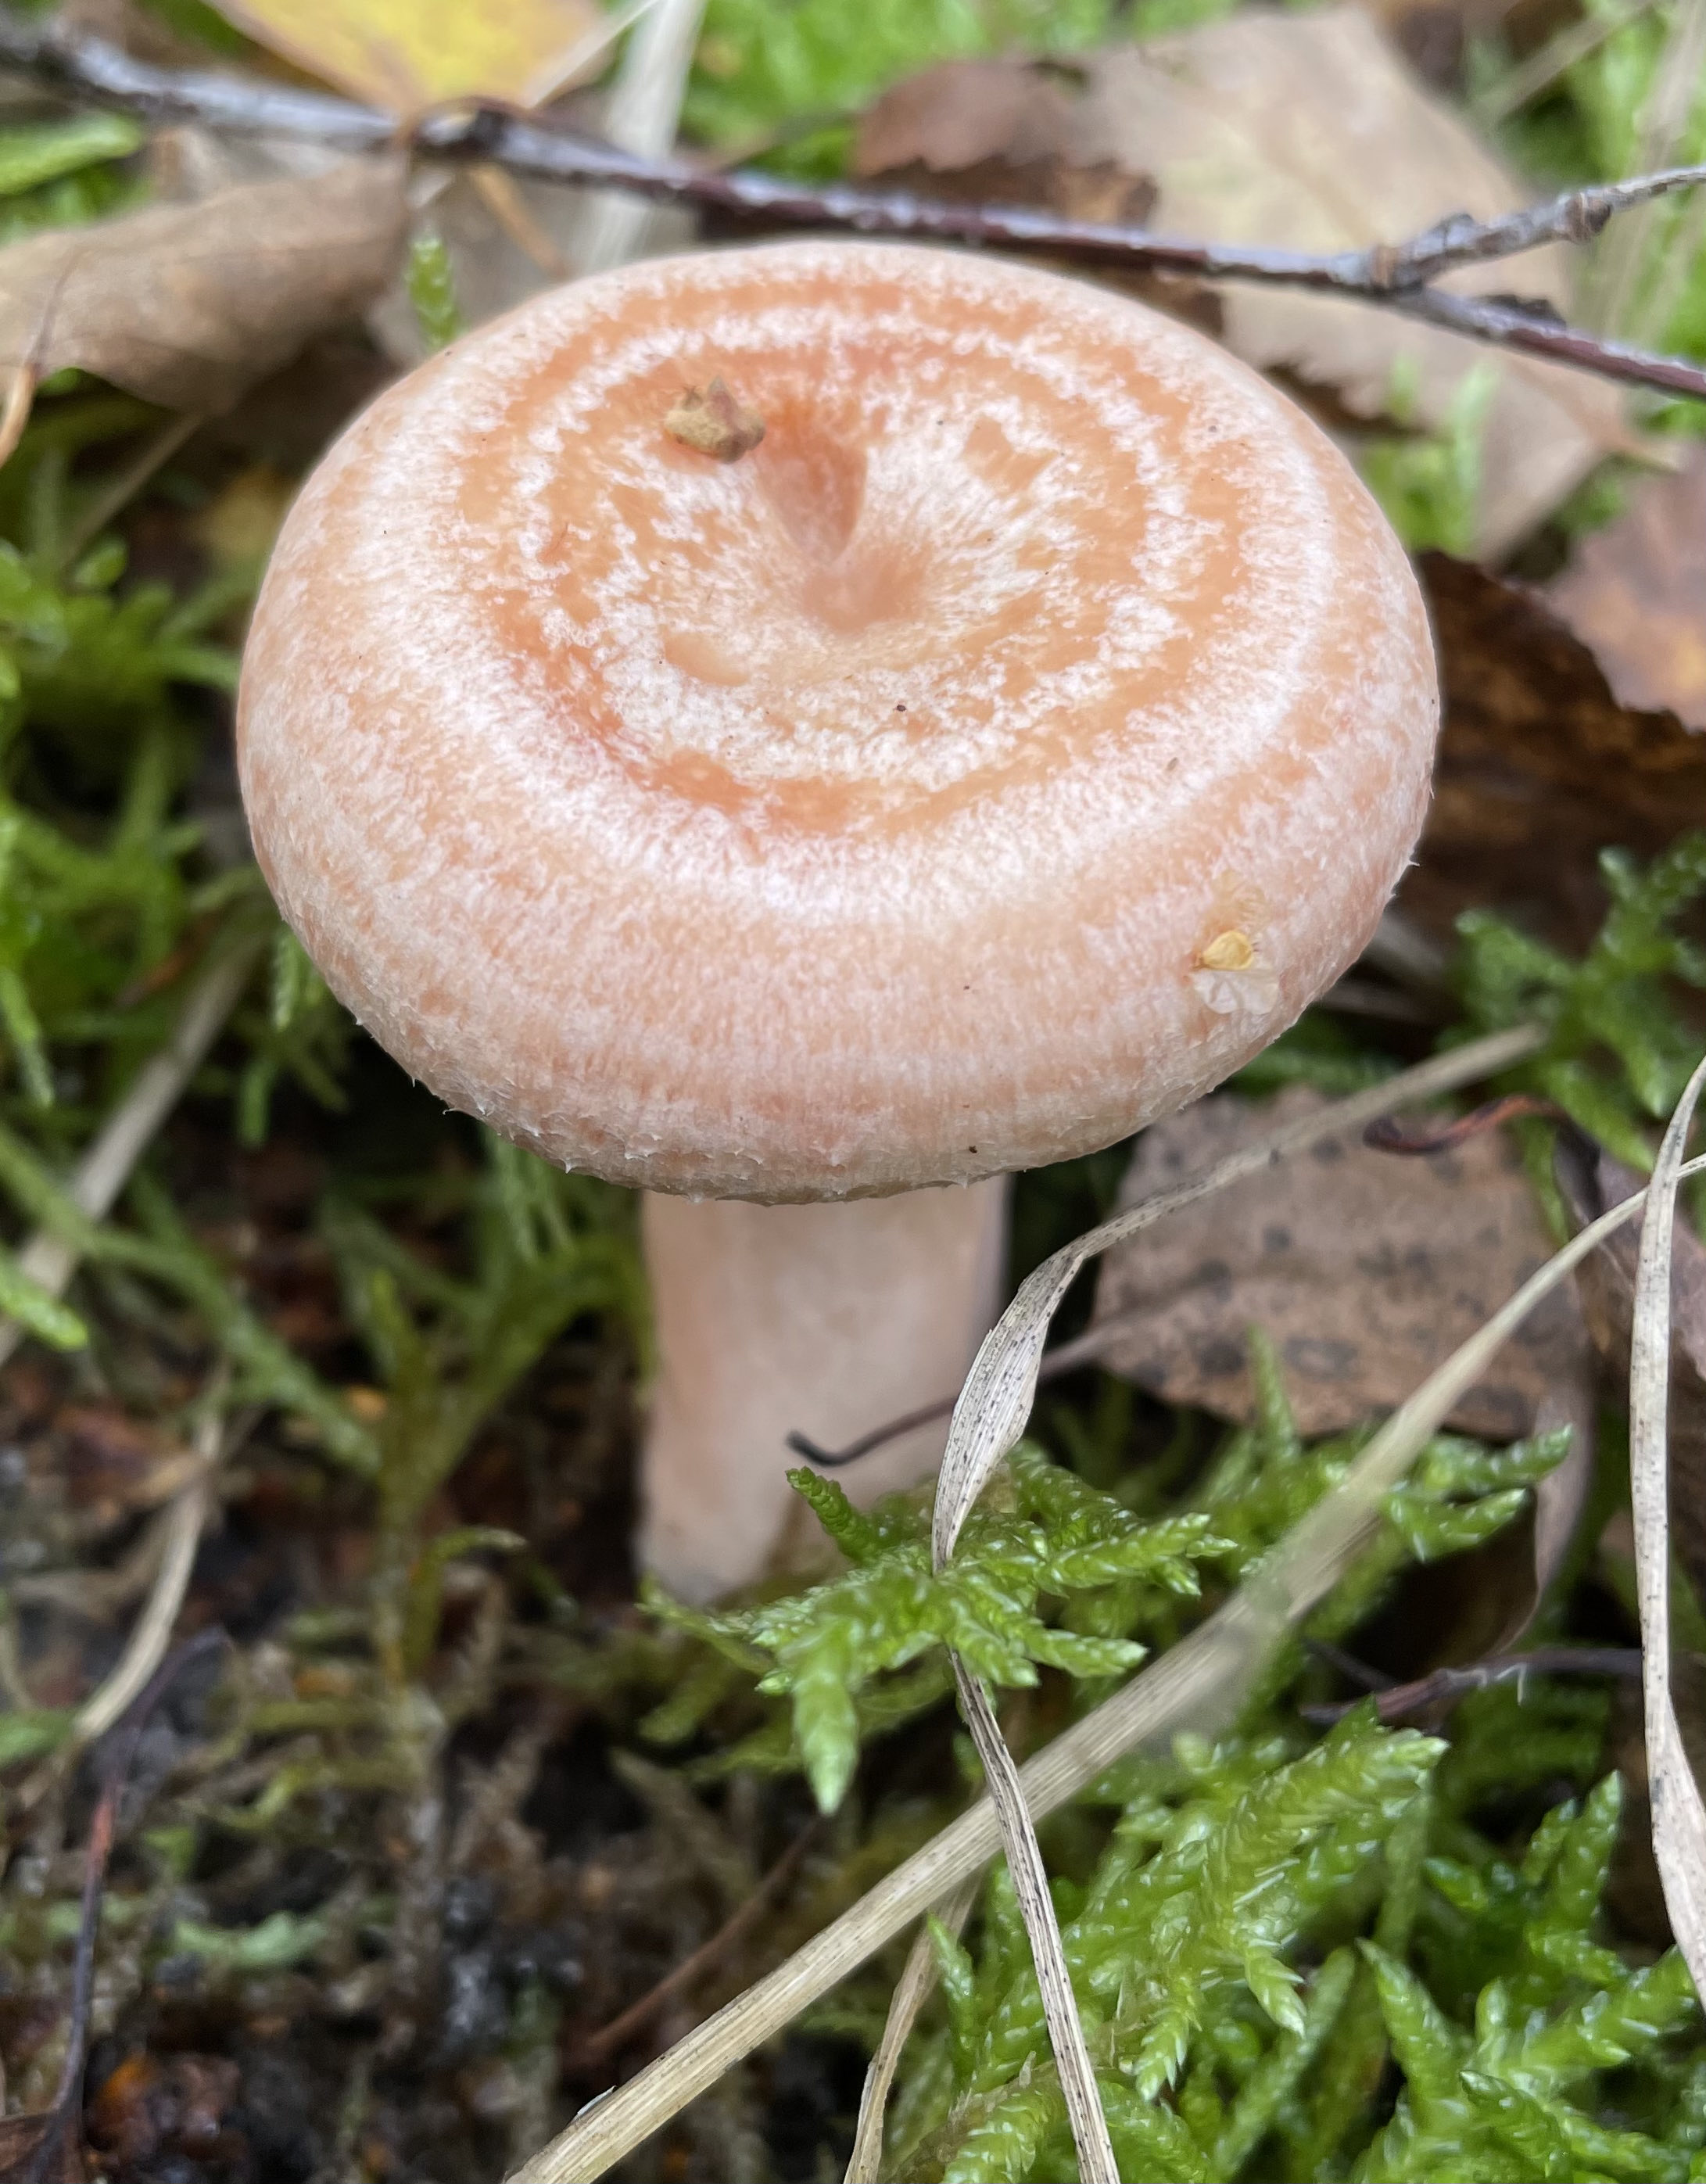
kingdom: Fungi
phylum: Basidiomycota
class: Agaricomycetes
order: Russulales
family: Russulaceae
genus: Lactarius
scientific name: Lactarius torminosus
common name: skægget mælkehat
